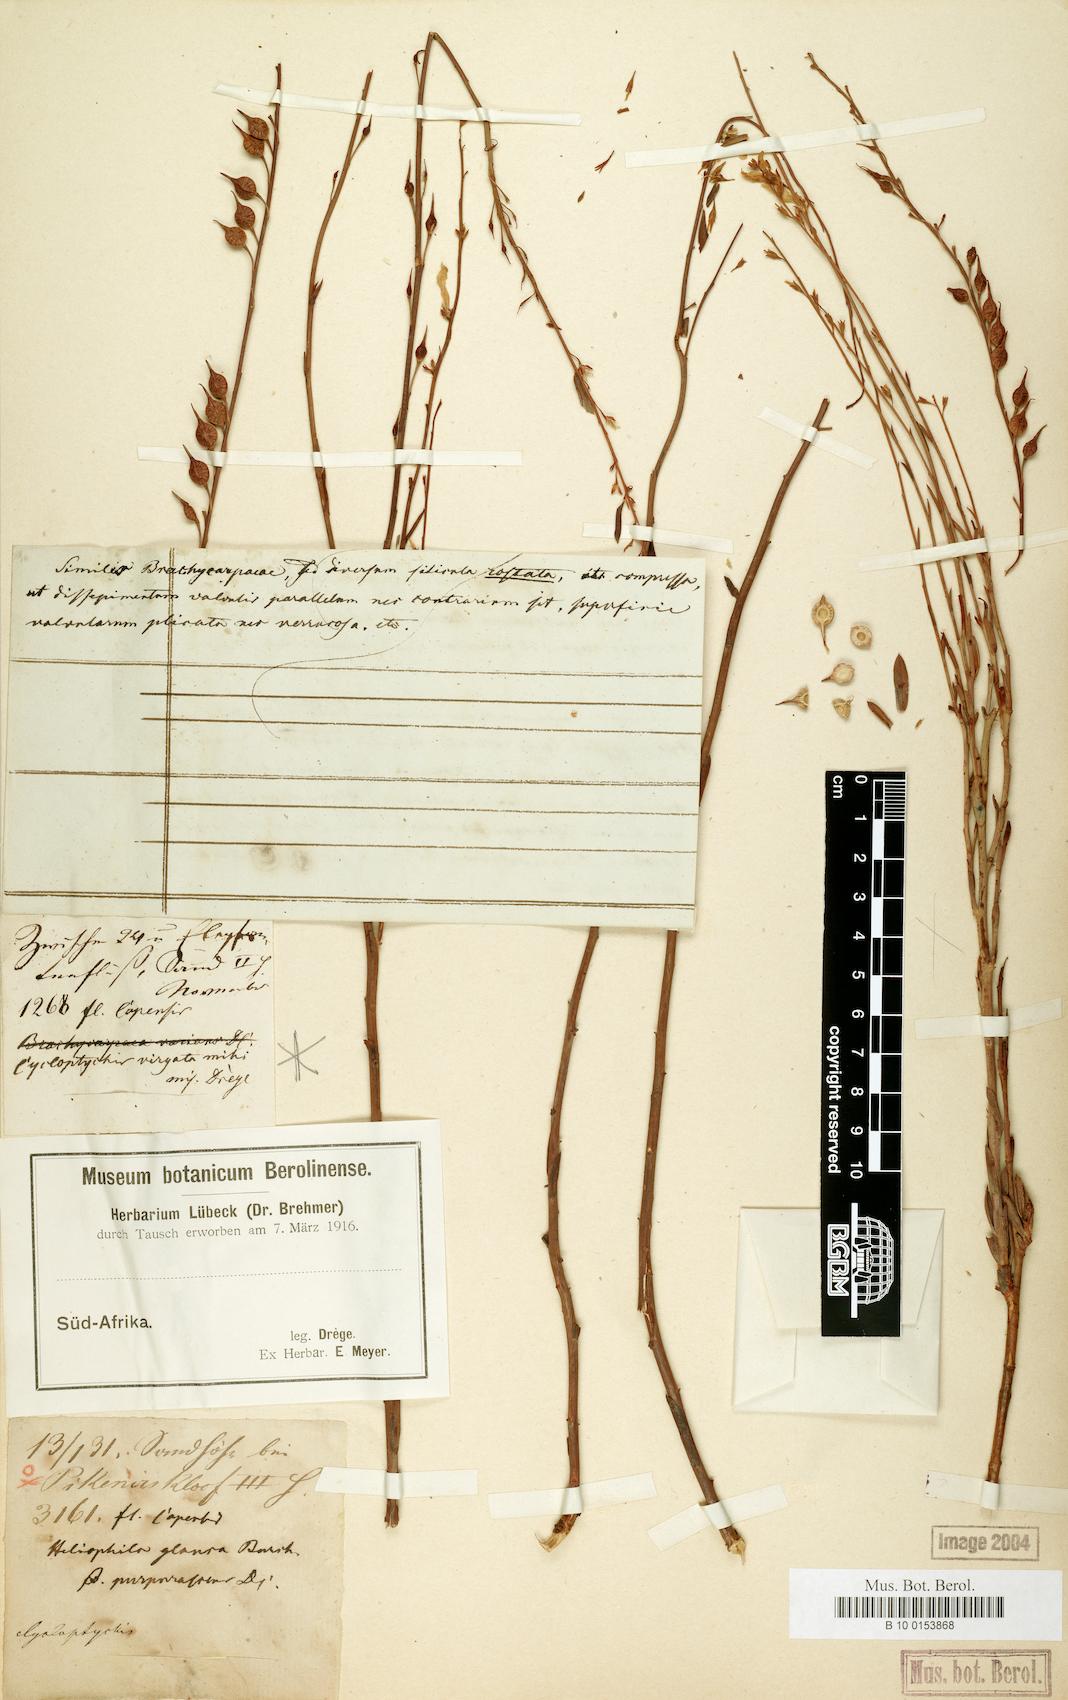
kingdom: Plantae
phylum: Tracheophyta
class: Magnoliopsida
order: Brassicales
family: Brassicaceae
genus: Heliophila
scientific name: Heliophila maraisiana
